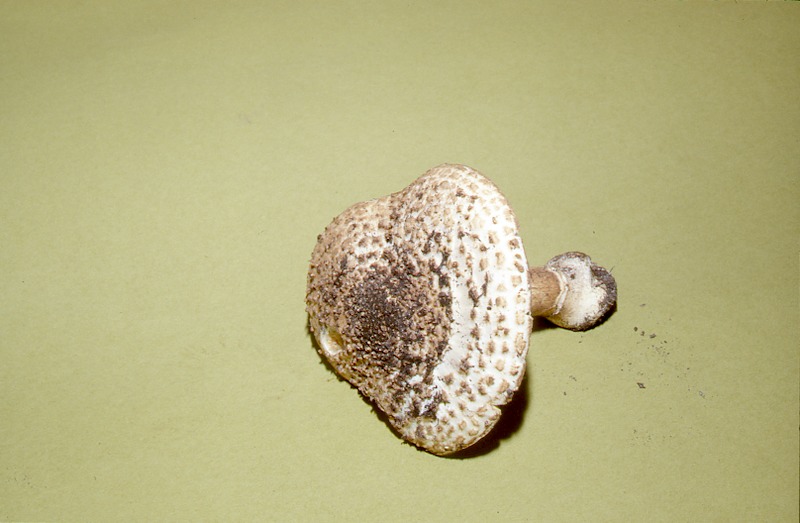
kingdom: Fungi
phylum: Basidiomycota
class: Agaricomycetes
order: Agaricales
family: Agaricaceae
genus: Echinoderma
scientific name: Echinoderma hystrix
